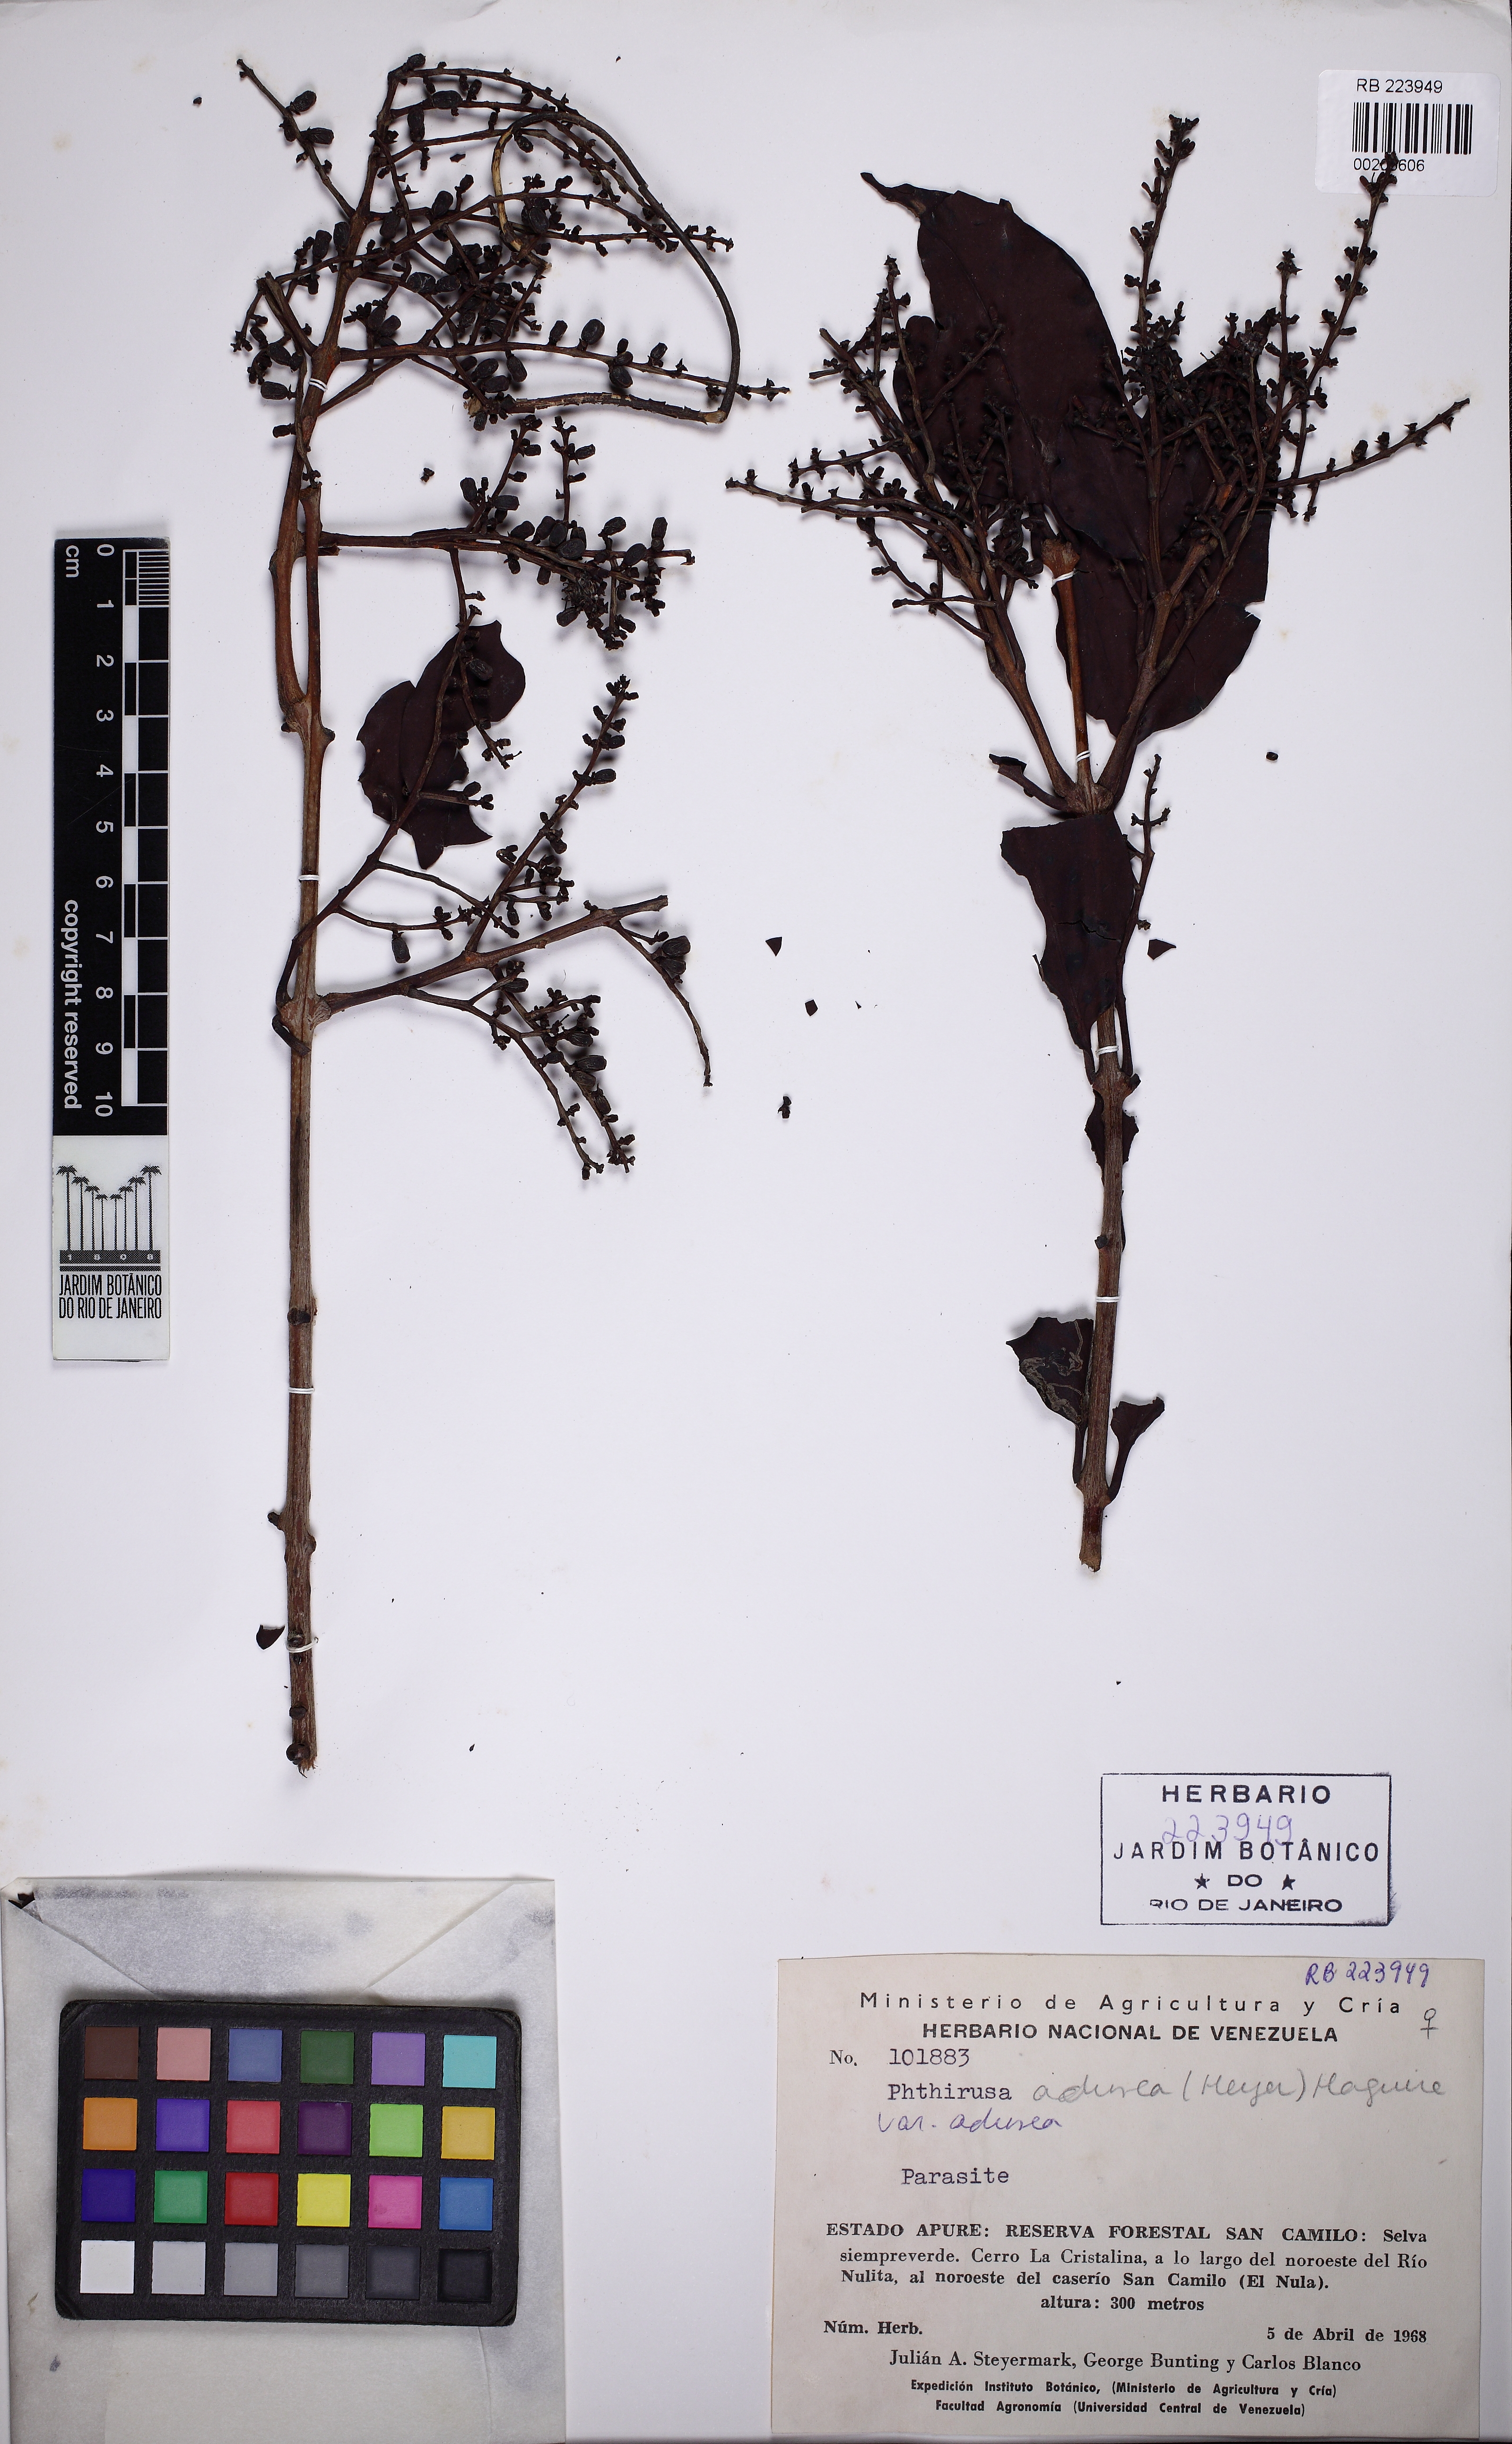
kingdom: Plantae
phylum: Tracheophyta
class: Magnoliopsida
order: Santalales
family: Loranthaceae
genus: Passovia
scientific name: Passovia pedunculata
